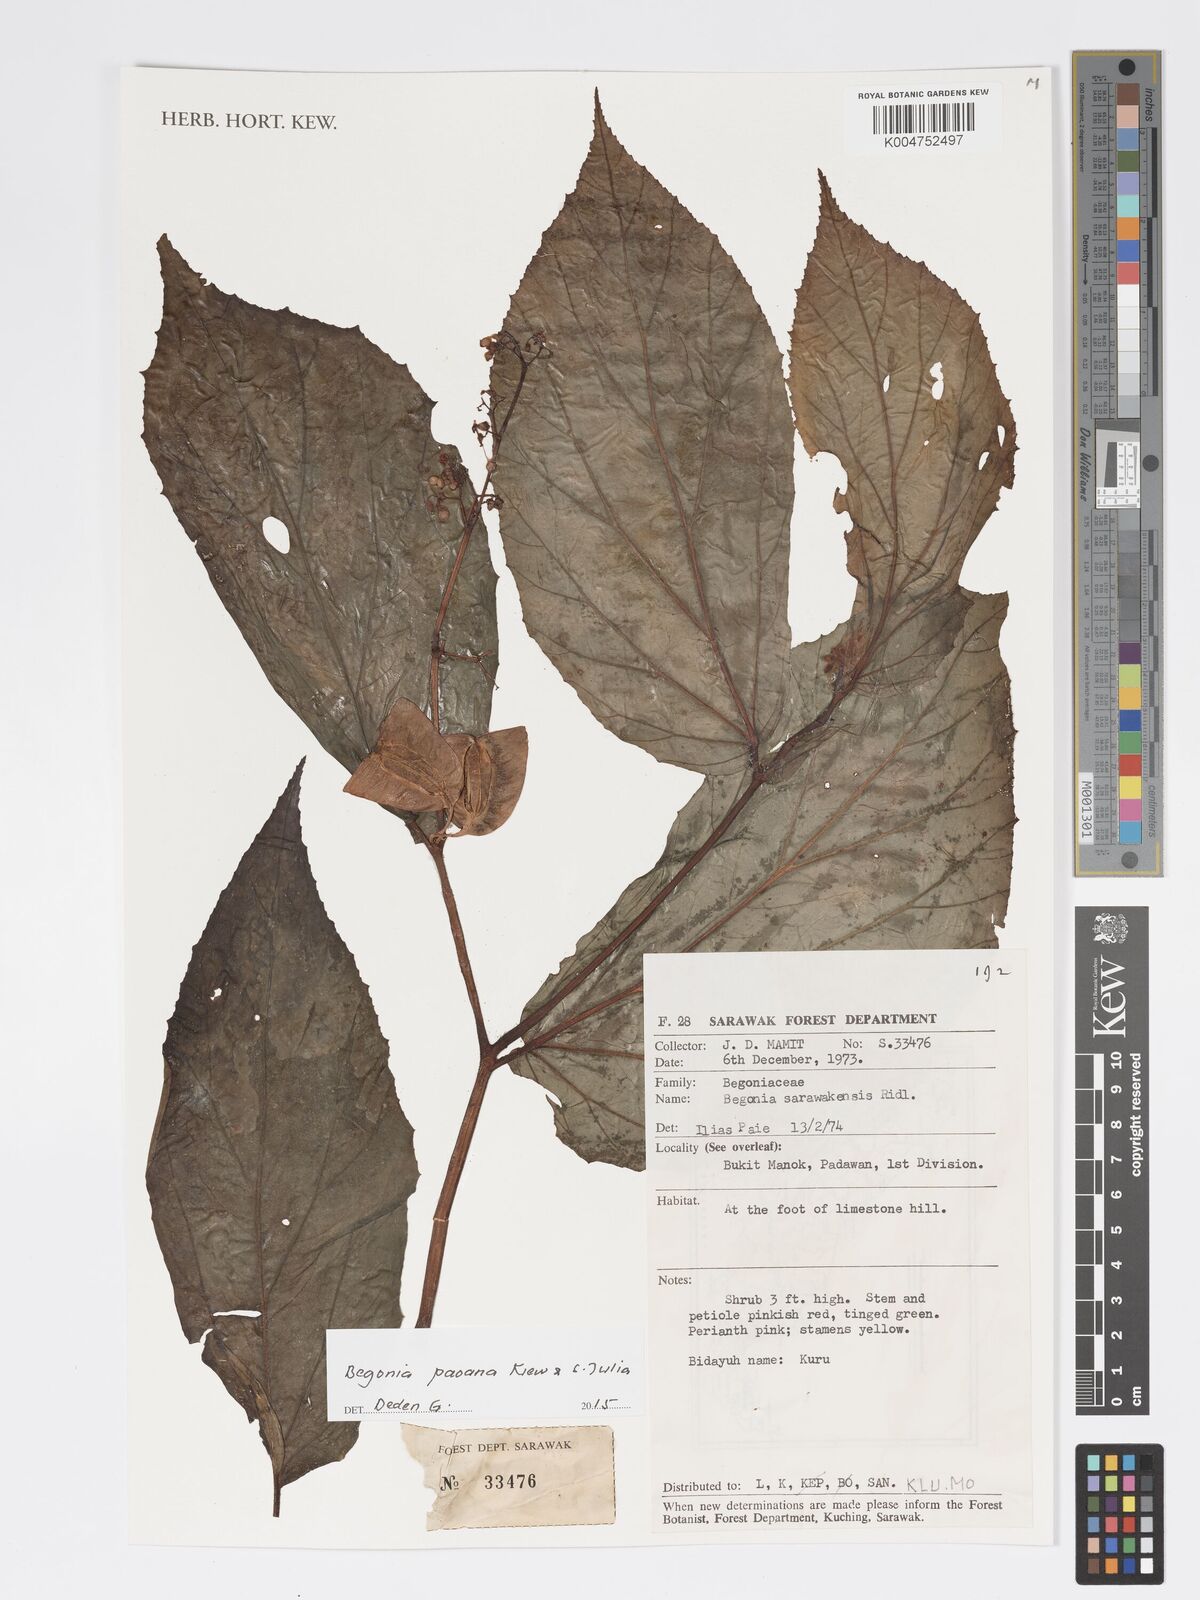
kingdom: Plantae
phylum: Tracheophyta
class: Magnoliopsida
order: Cucurbitales
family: Begoniaceae
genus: Begonia
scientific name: Begonia paoana
